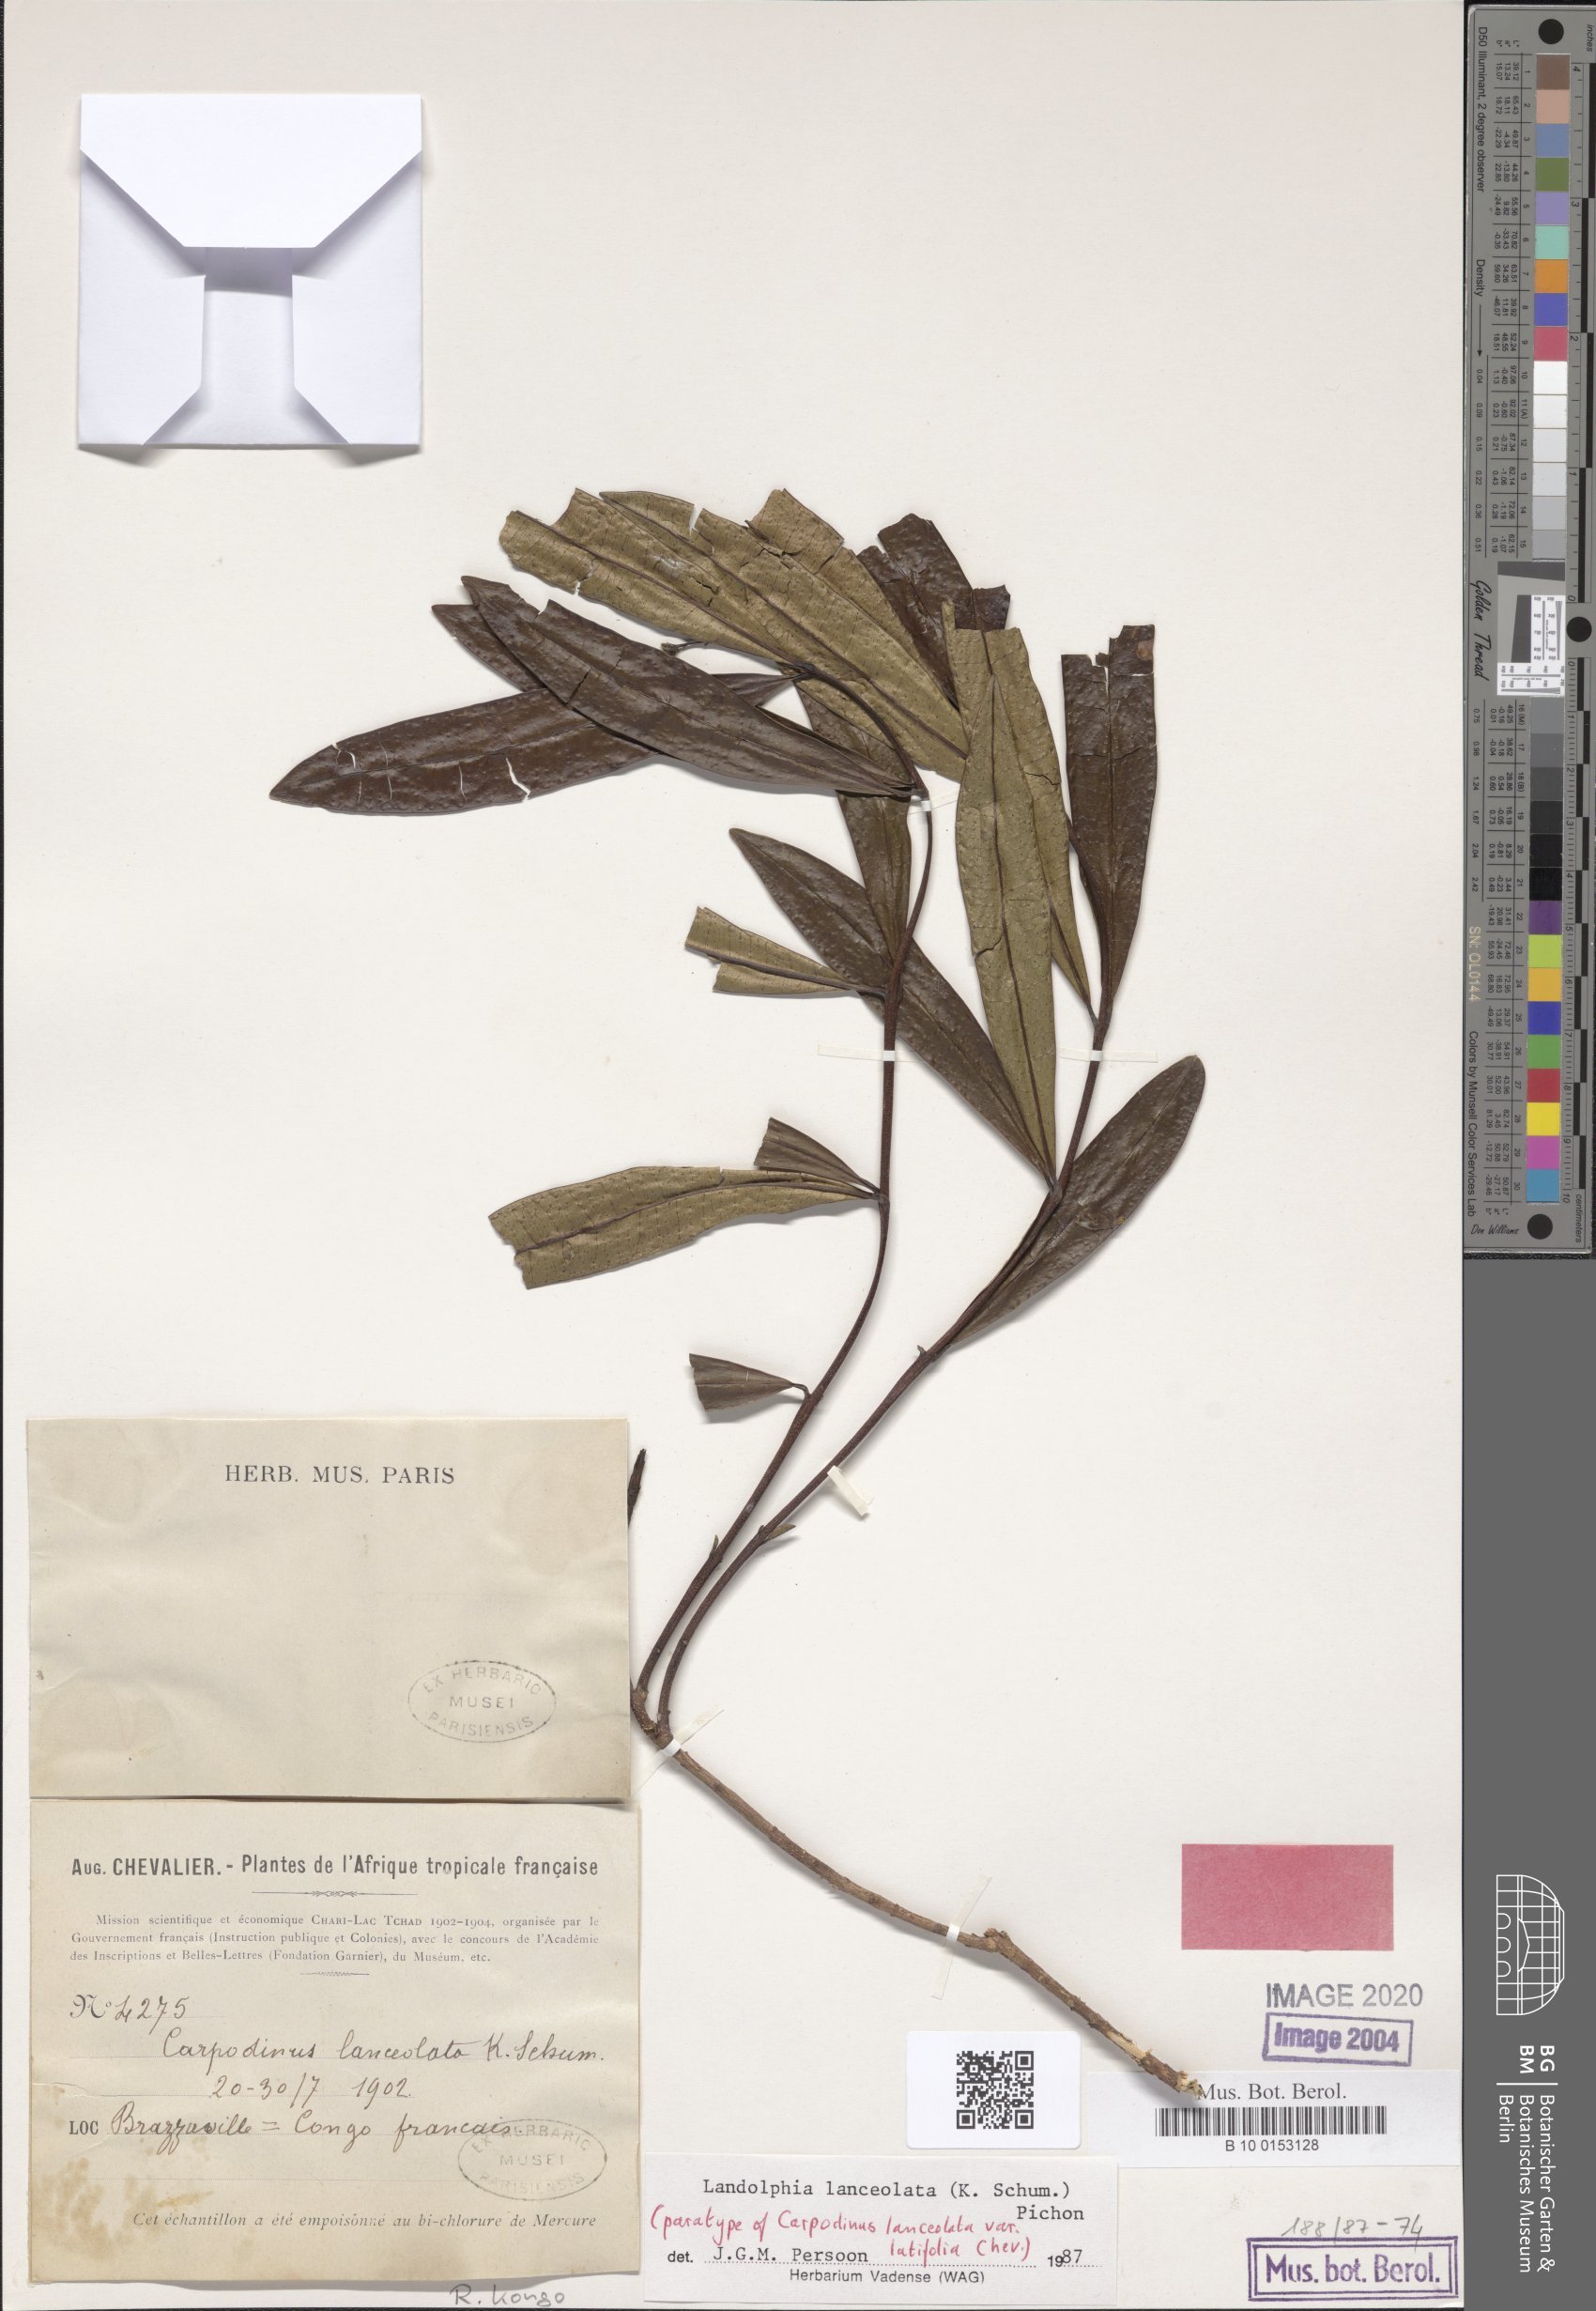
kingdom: Plantae
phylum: Tracheophyta
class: Magnoliopsida
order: Gentianales
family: Apocynaceae
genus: Landolphia
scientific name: Landolphia lanceolata
